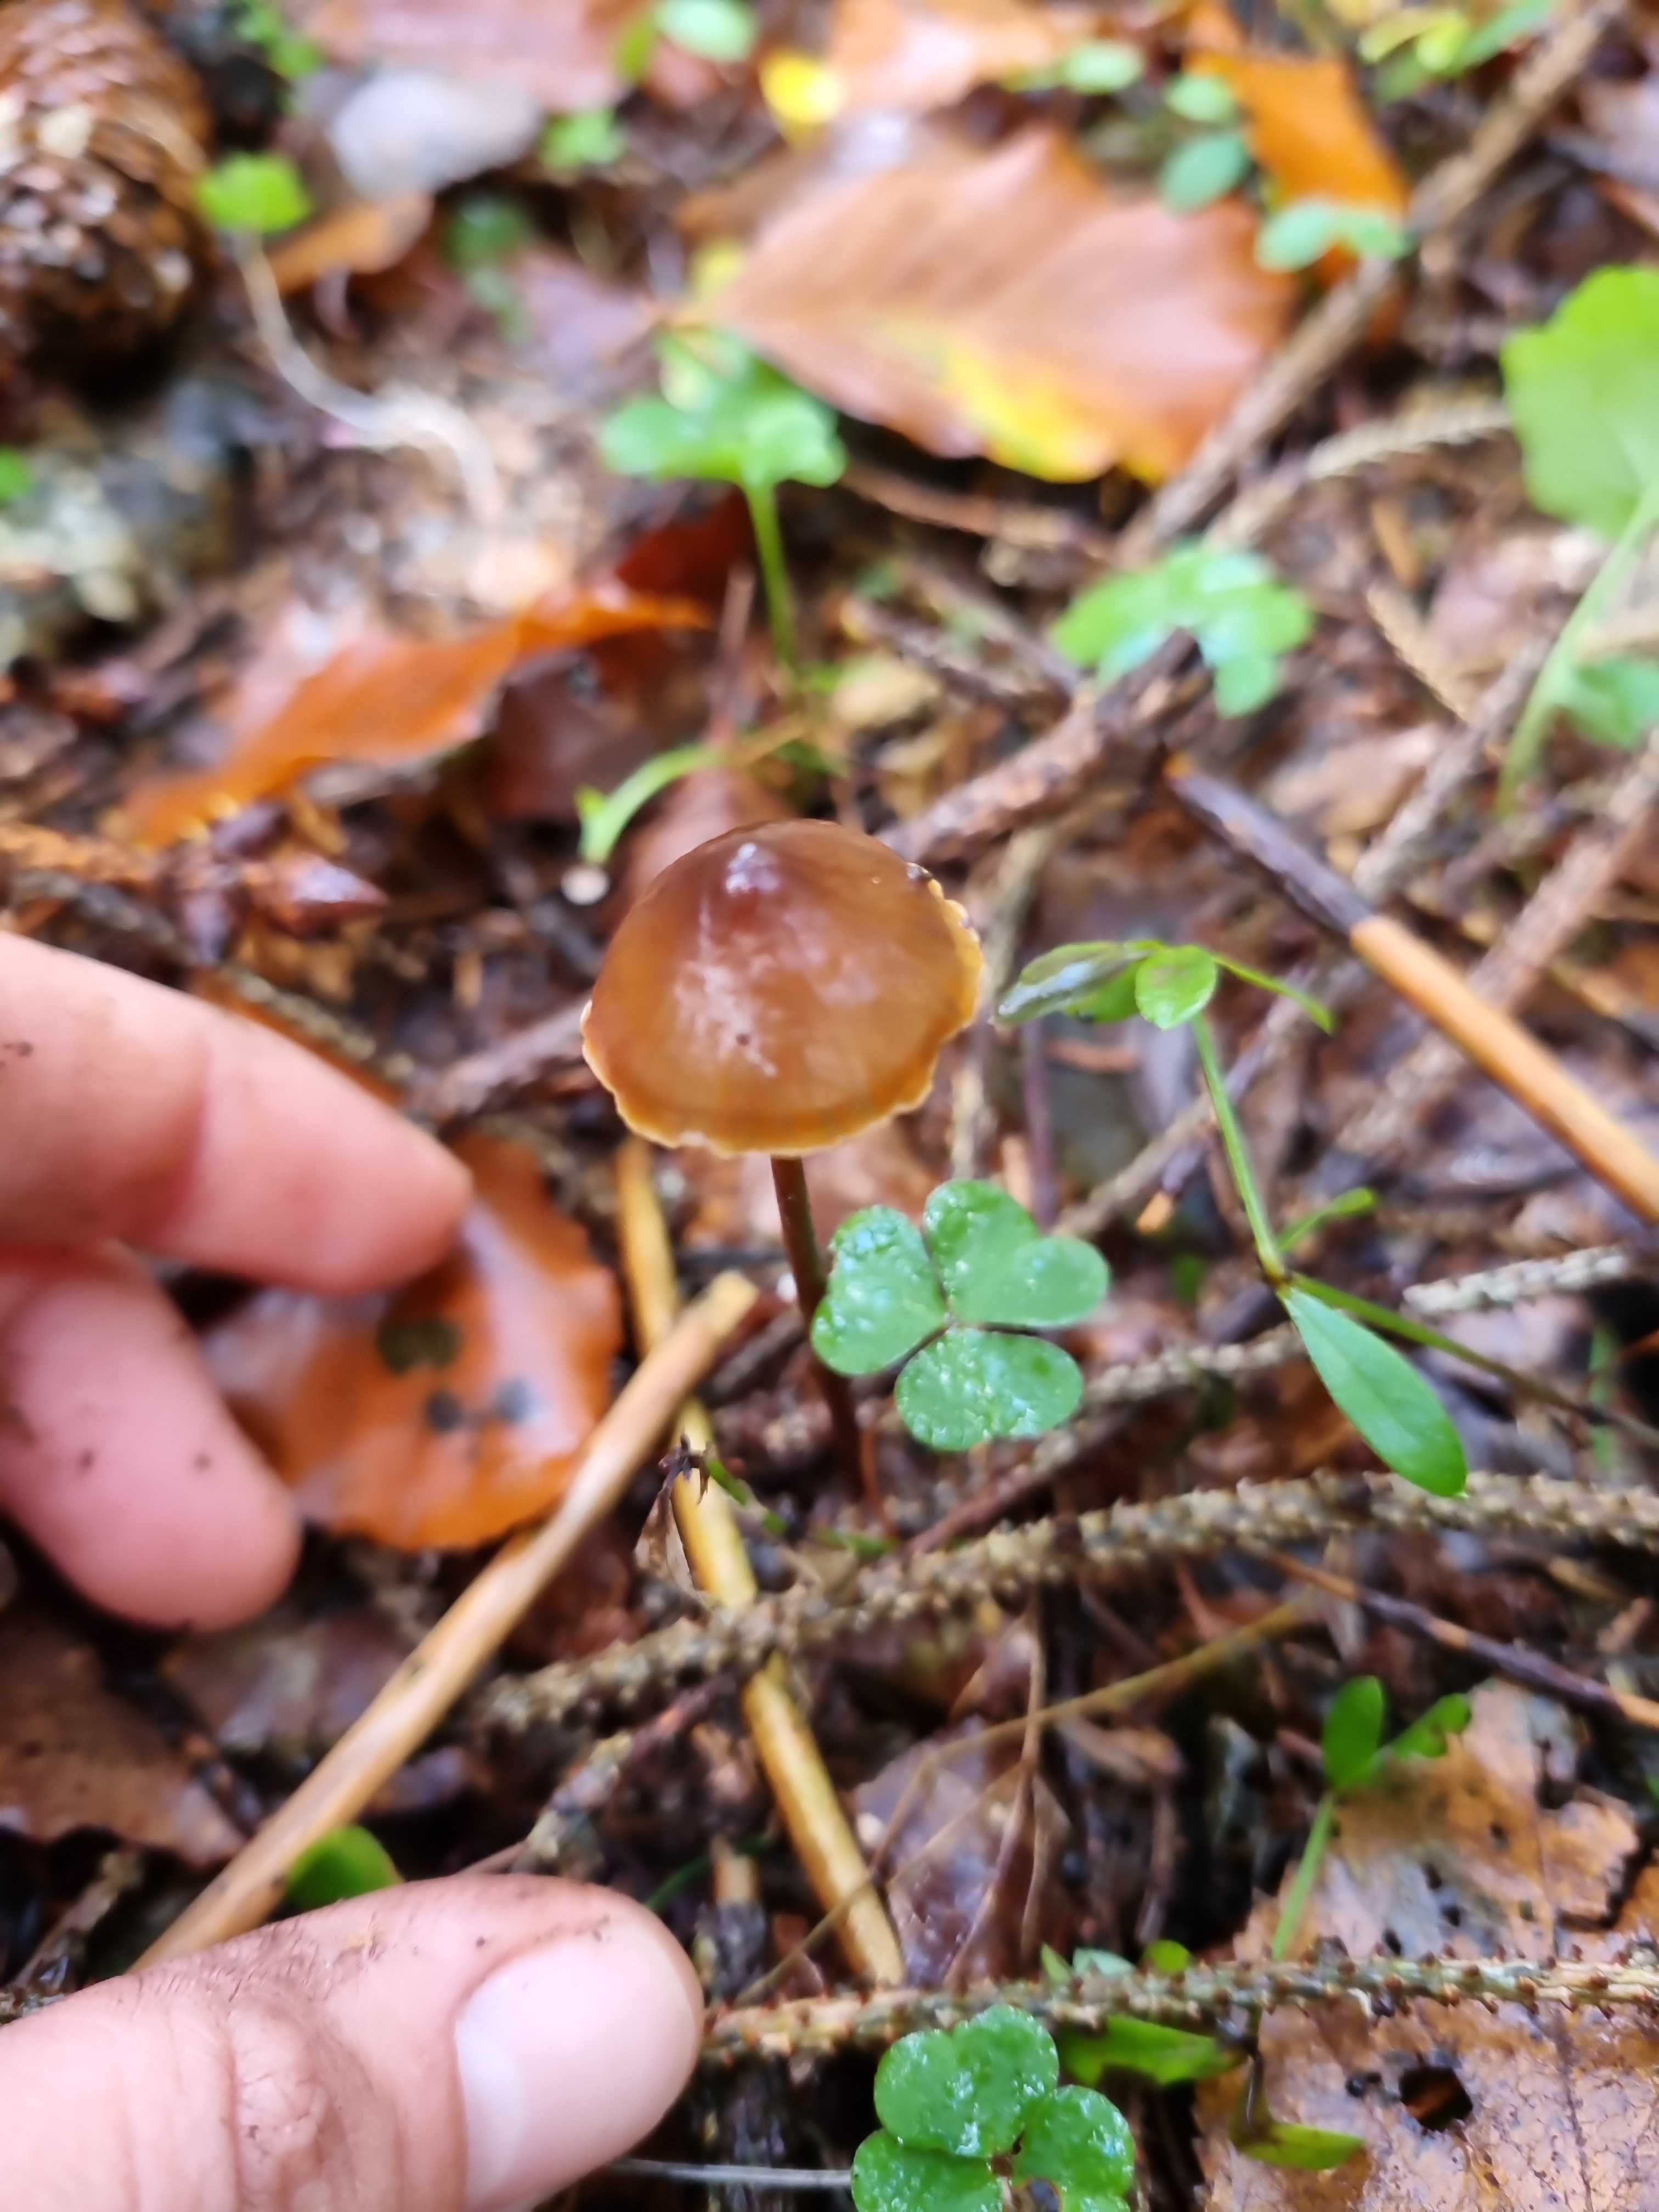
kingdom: Fungi
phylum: Basidiomycota
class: Agaricomycetes
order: Agaricales
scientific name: Agaricales
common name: champignonordenen
